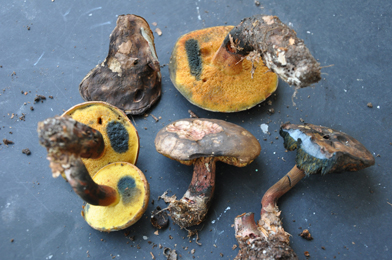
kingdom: Fungi
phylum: Basidiomycota
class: Agaricomycetes
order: Boletales
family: Boletaceae
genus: Cyanoboletus
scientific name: Cyanoboletus pulverulentus
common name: sortblånende rørhat
